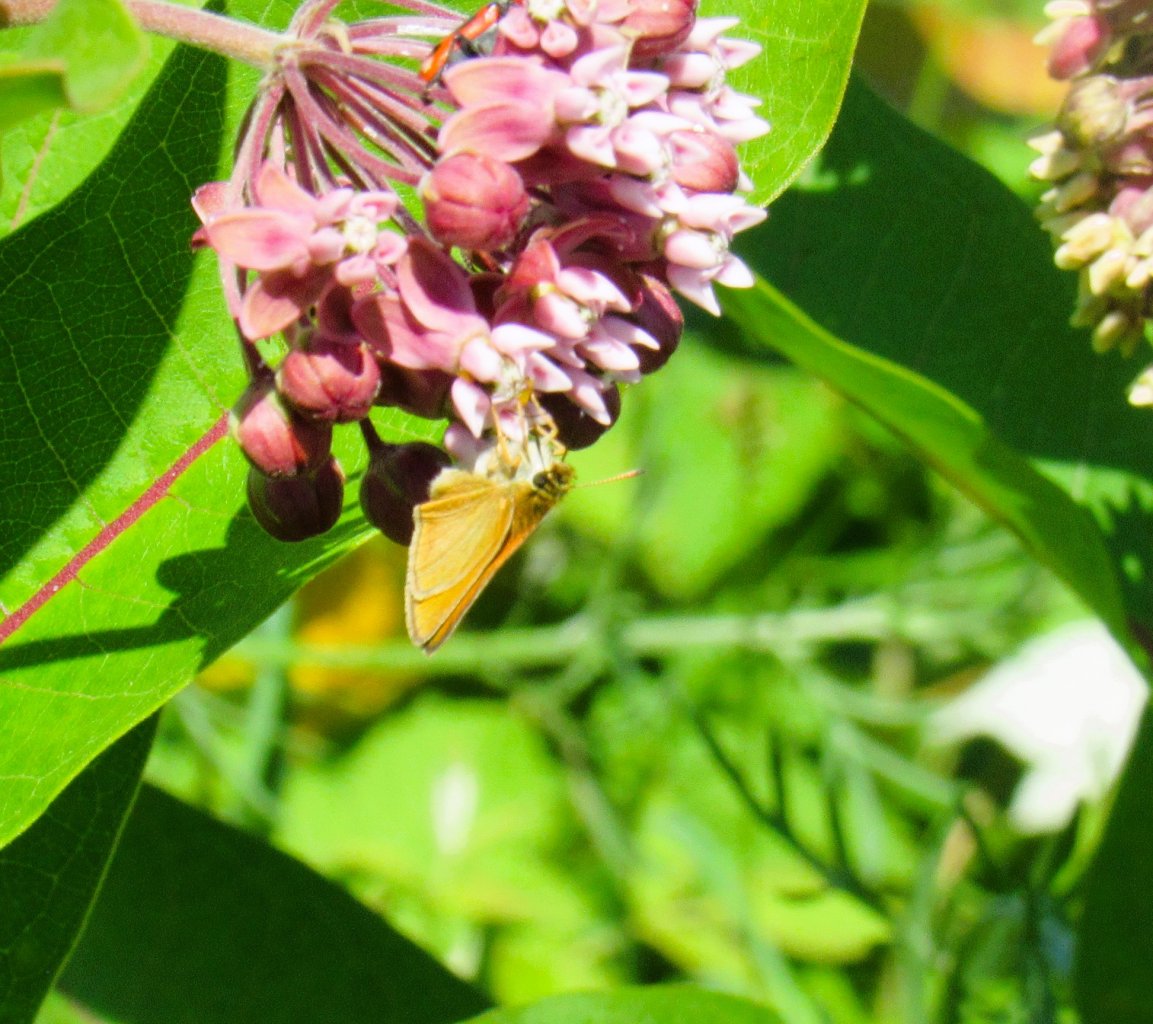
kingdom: Animalia
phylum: Arthropoda
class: Insecta
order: Lepidoptera
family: Hesperiidae
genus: Atrytone
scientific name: Atrytone delaware
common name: Delaware Skipper
